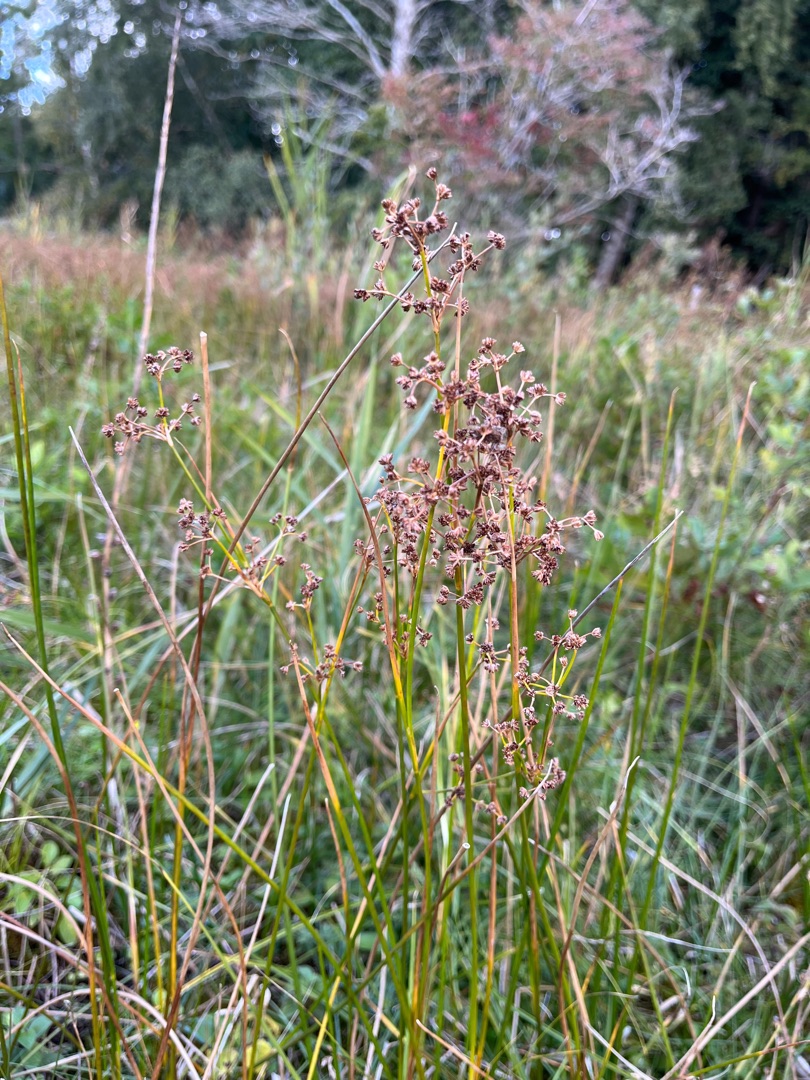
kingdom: Plantae
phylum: Tracheophyta
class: Liliopsida
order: Poales
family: Juncaceae
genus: Juncus
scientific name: Juncus subnodulosus
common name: Butblomstret siv
